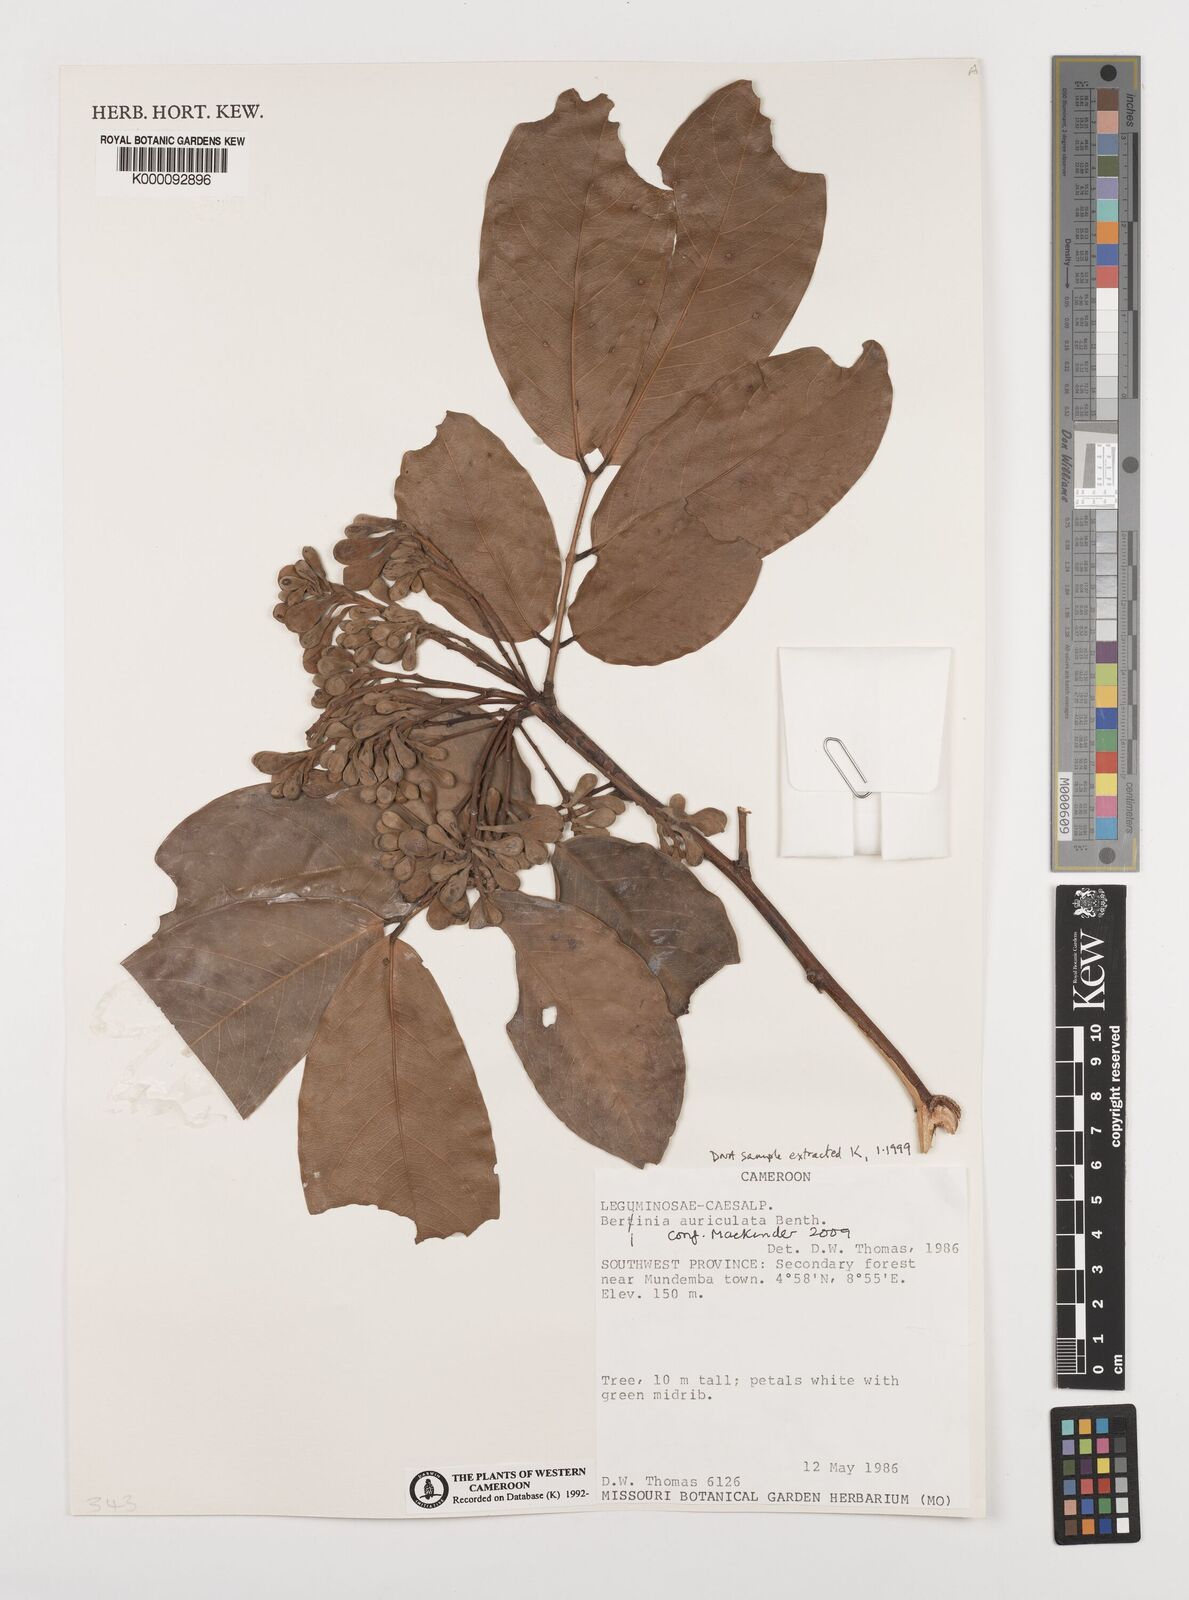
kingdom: Plantae
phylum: Tracheophyta
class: Magnoliopsida
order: Fabales
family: Fabaceae
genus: Berlinia
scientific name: Berlinia auriculata
